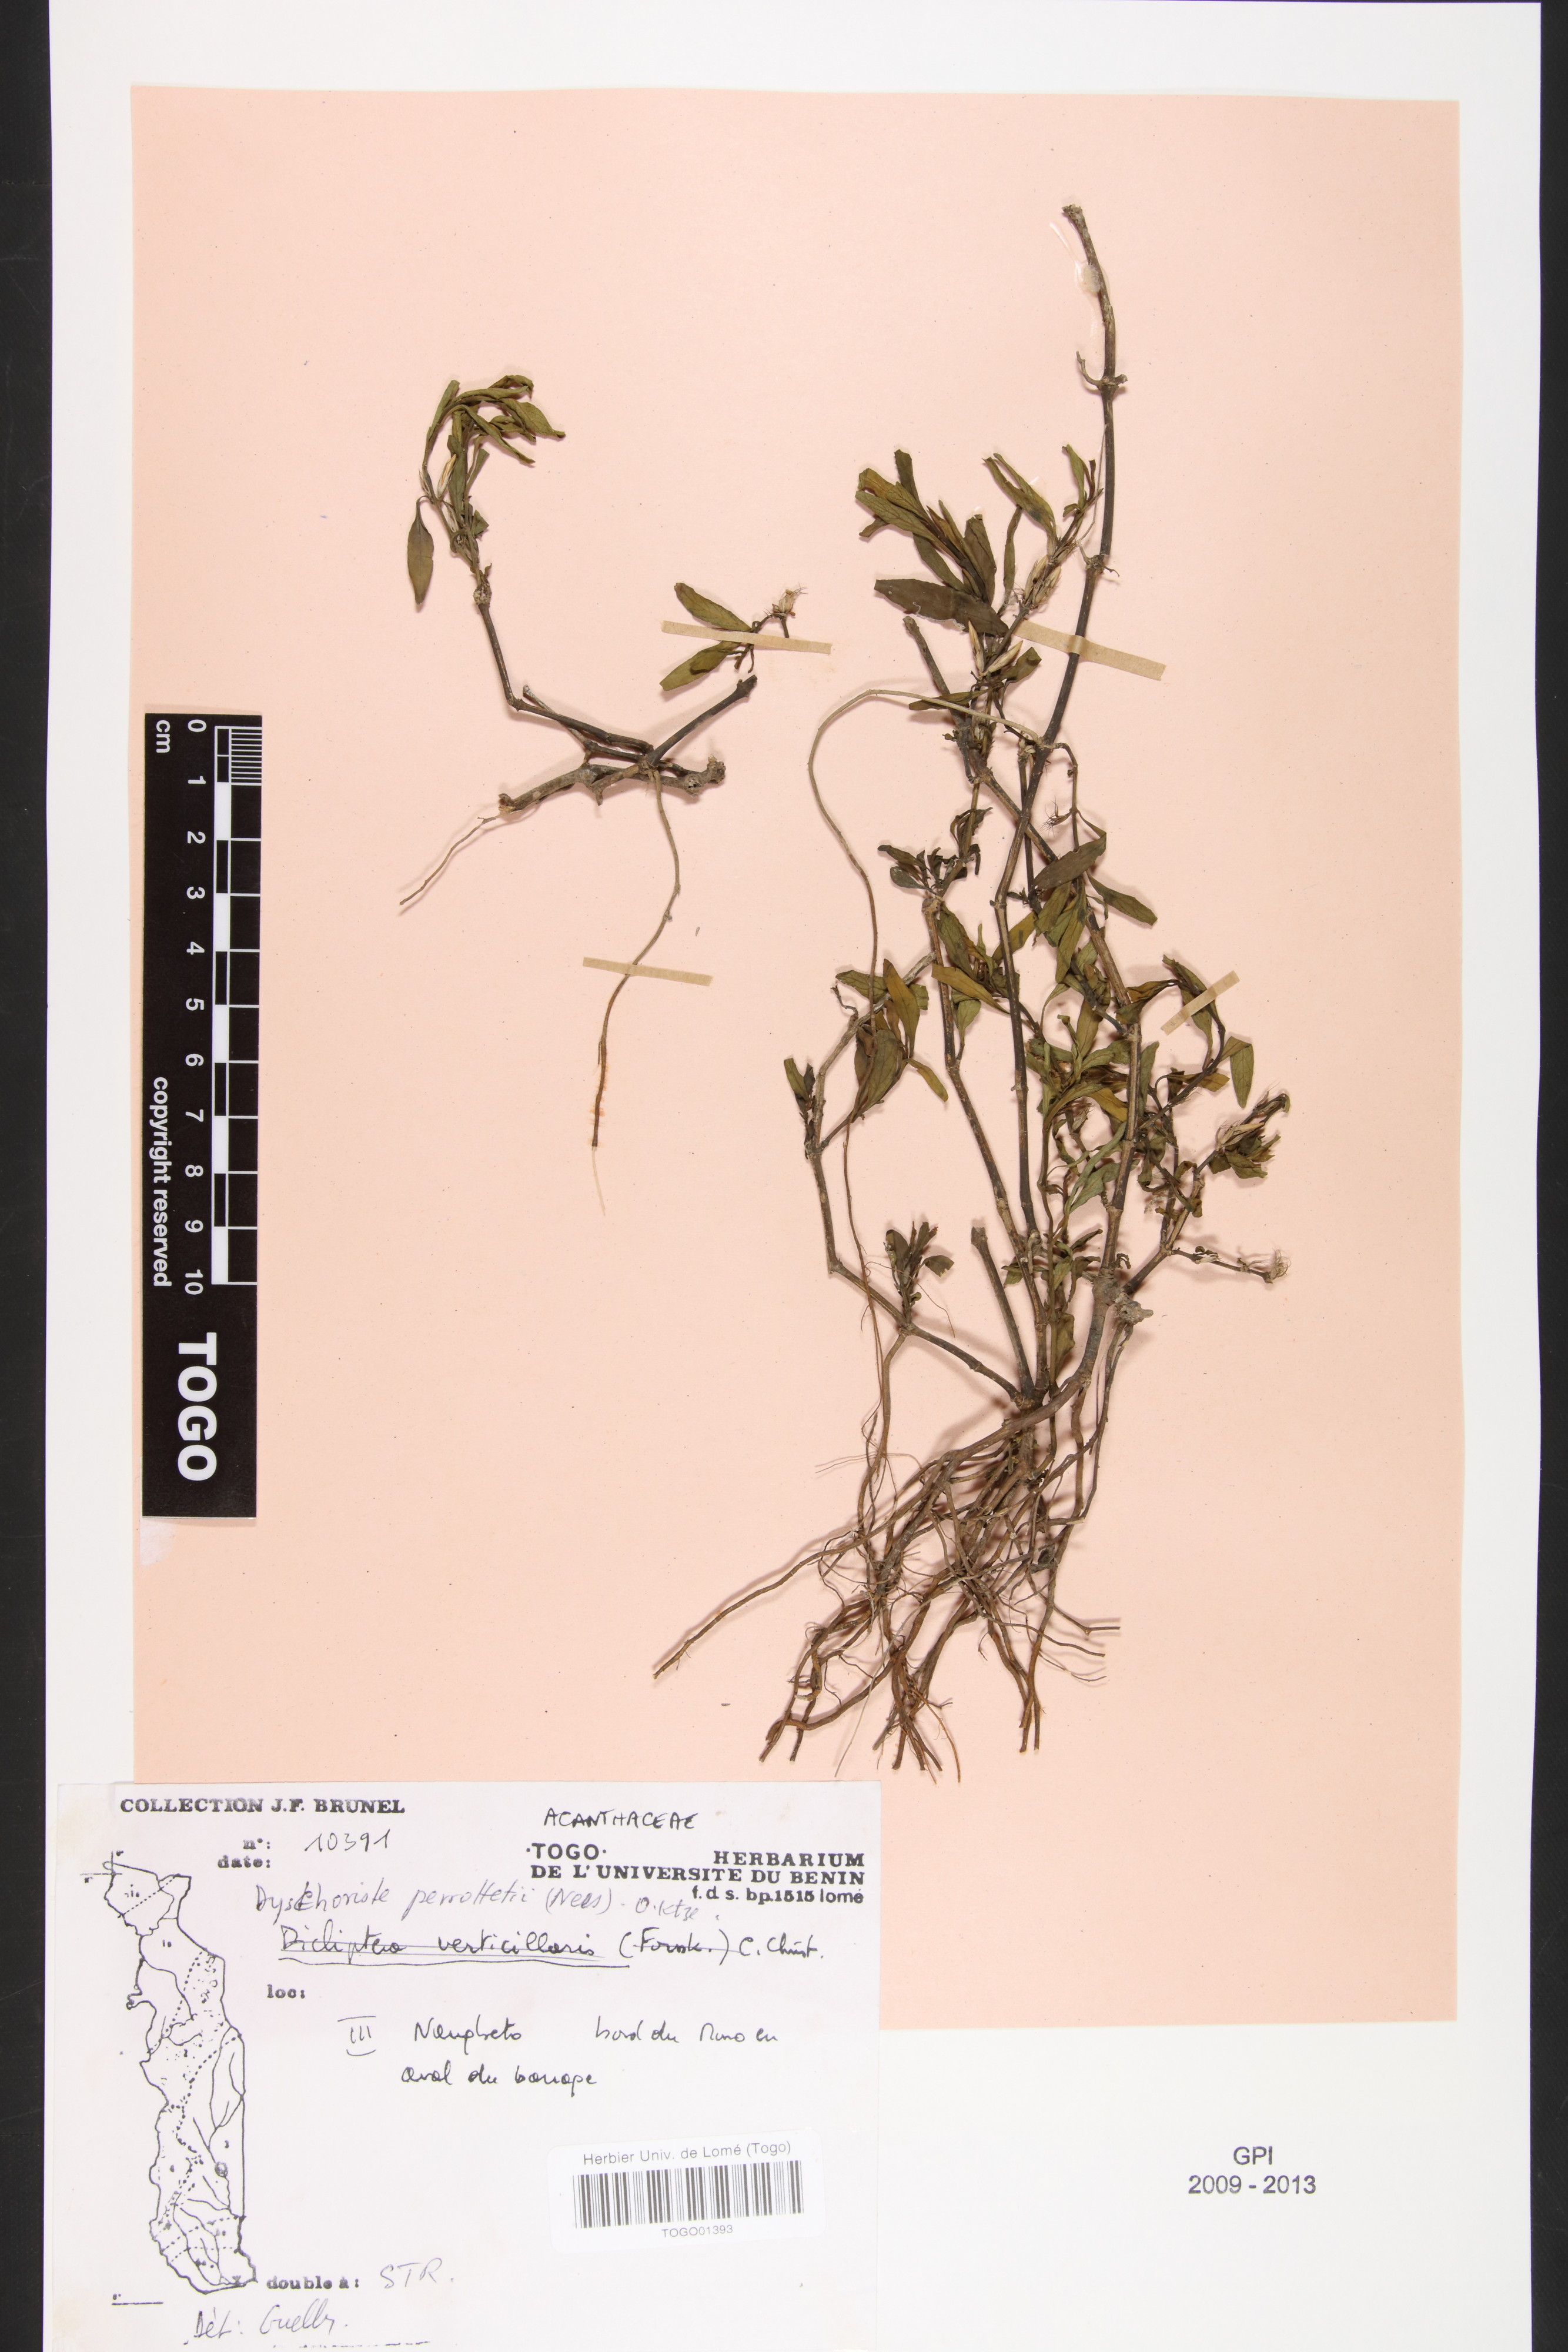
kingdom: Plantae
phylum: Tracheophyta
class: Magnoliopsida
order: Lamiales
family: Acanthaceae
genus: Dyschoriste
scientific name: Dyschoriste nagchana
